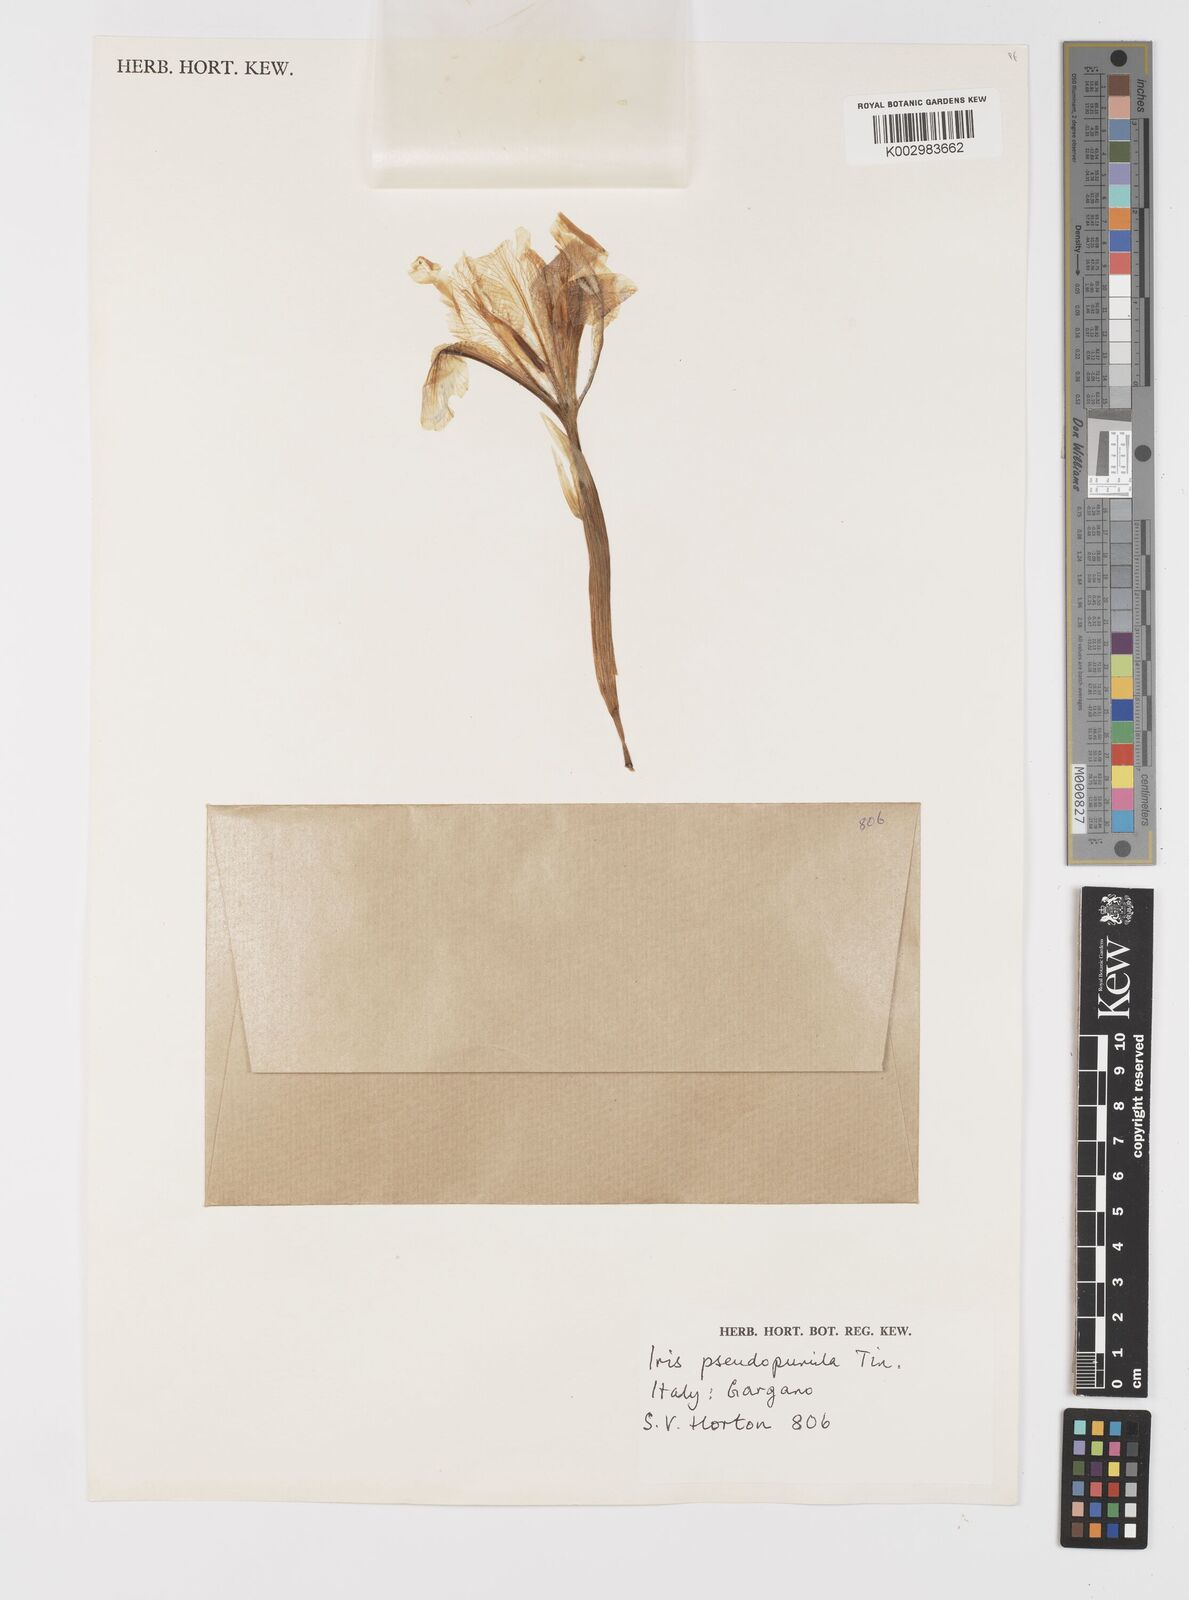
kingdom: Plantae
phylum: Tracheophyta
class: Liliopsida
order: Asparagales
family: Iridaceae
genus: Iris
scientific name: Iris pseudopumila
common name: Southern dwarf iris
